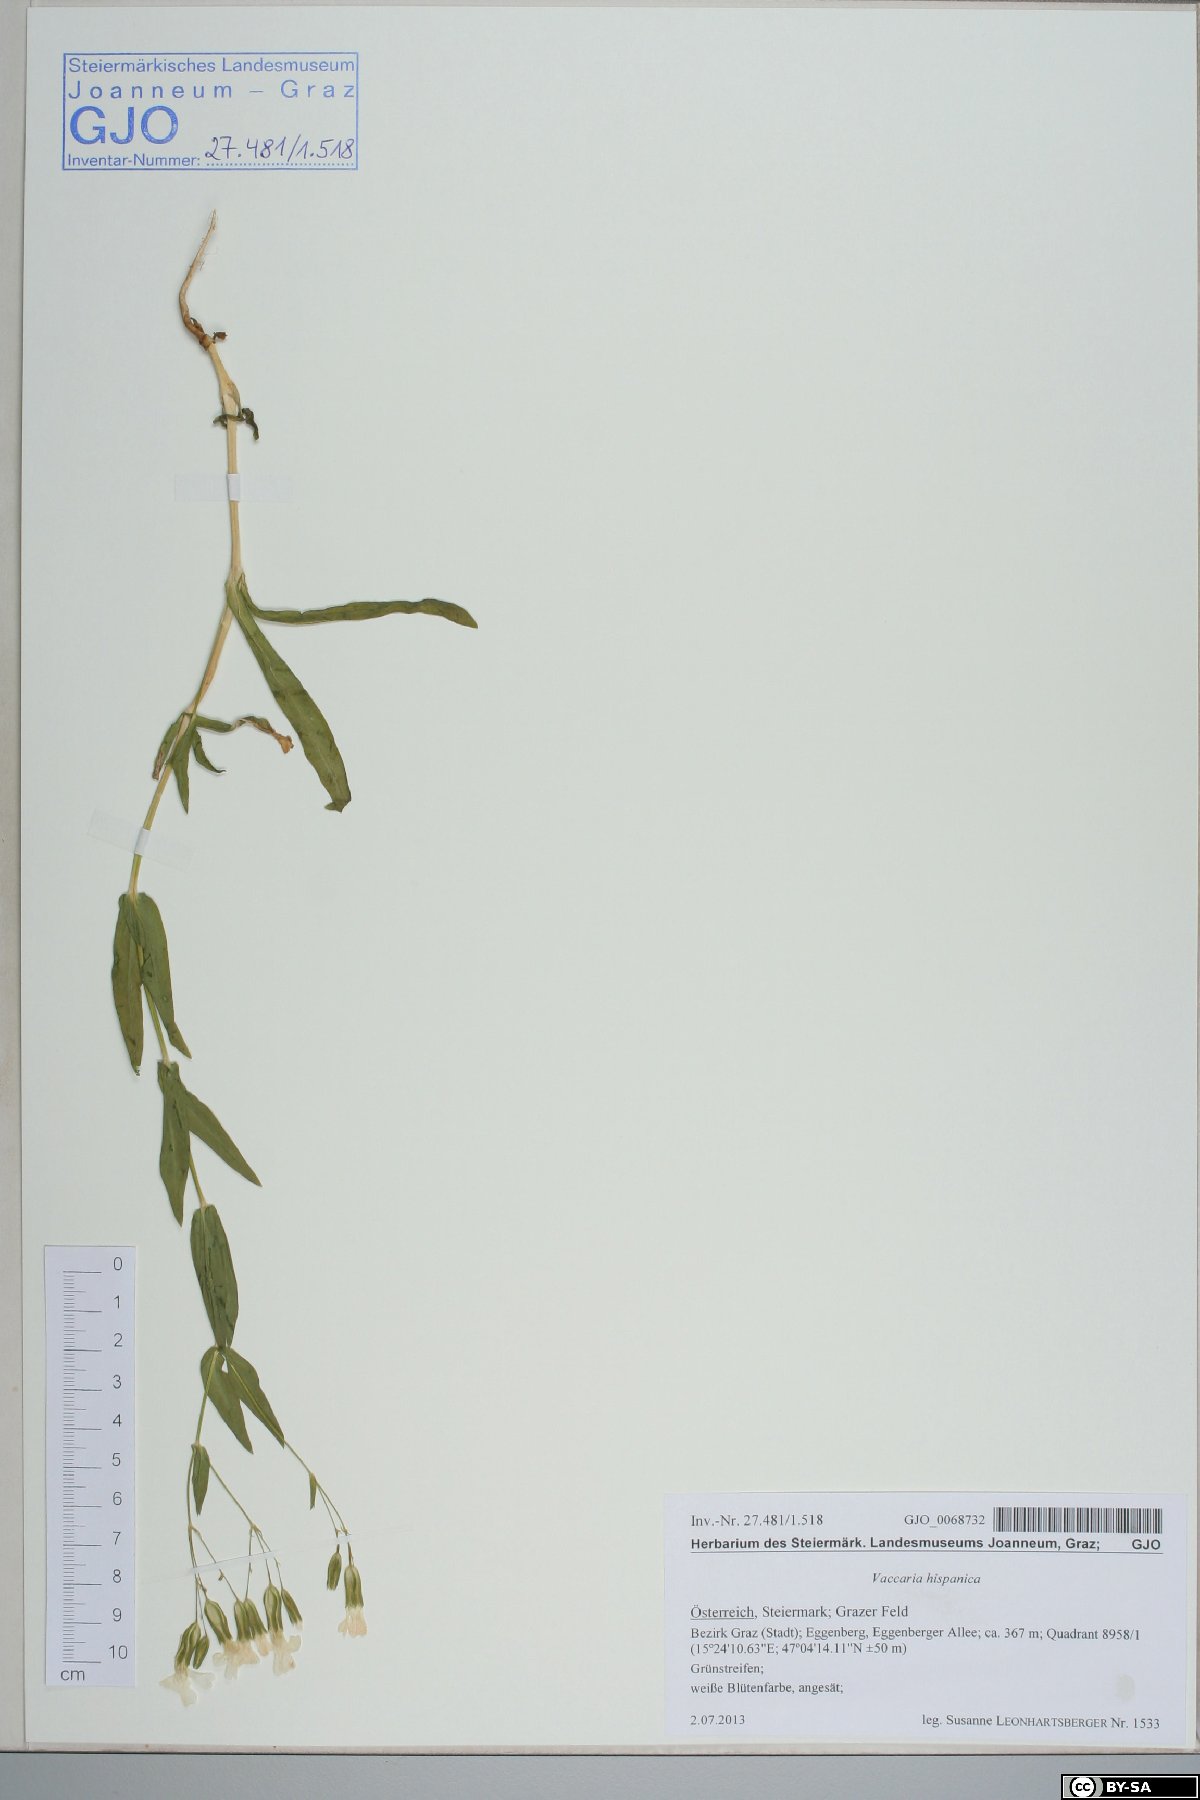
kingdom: Plantae
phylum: Tracheophyta
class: Magnoliopsida
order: Caryophyllales
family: Caryophyllaceae
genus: Gypsophila
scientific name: Gypsophila vaccaria
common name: Cow soapwort
